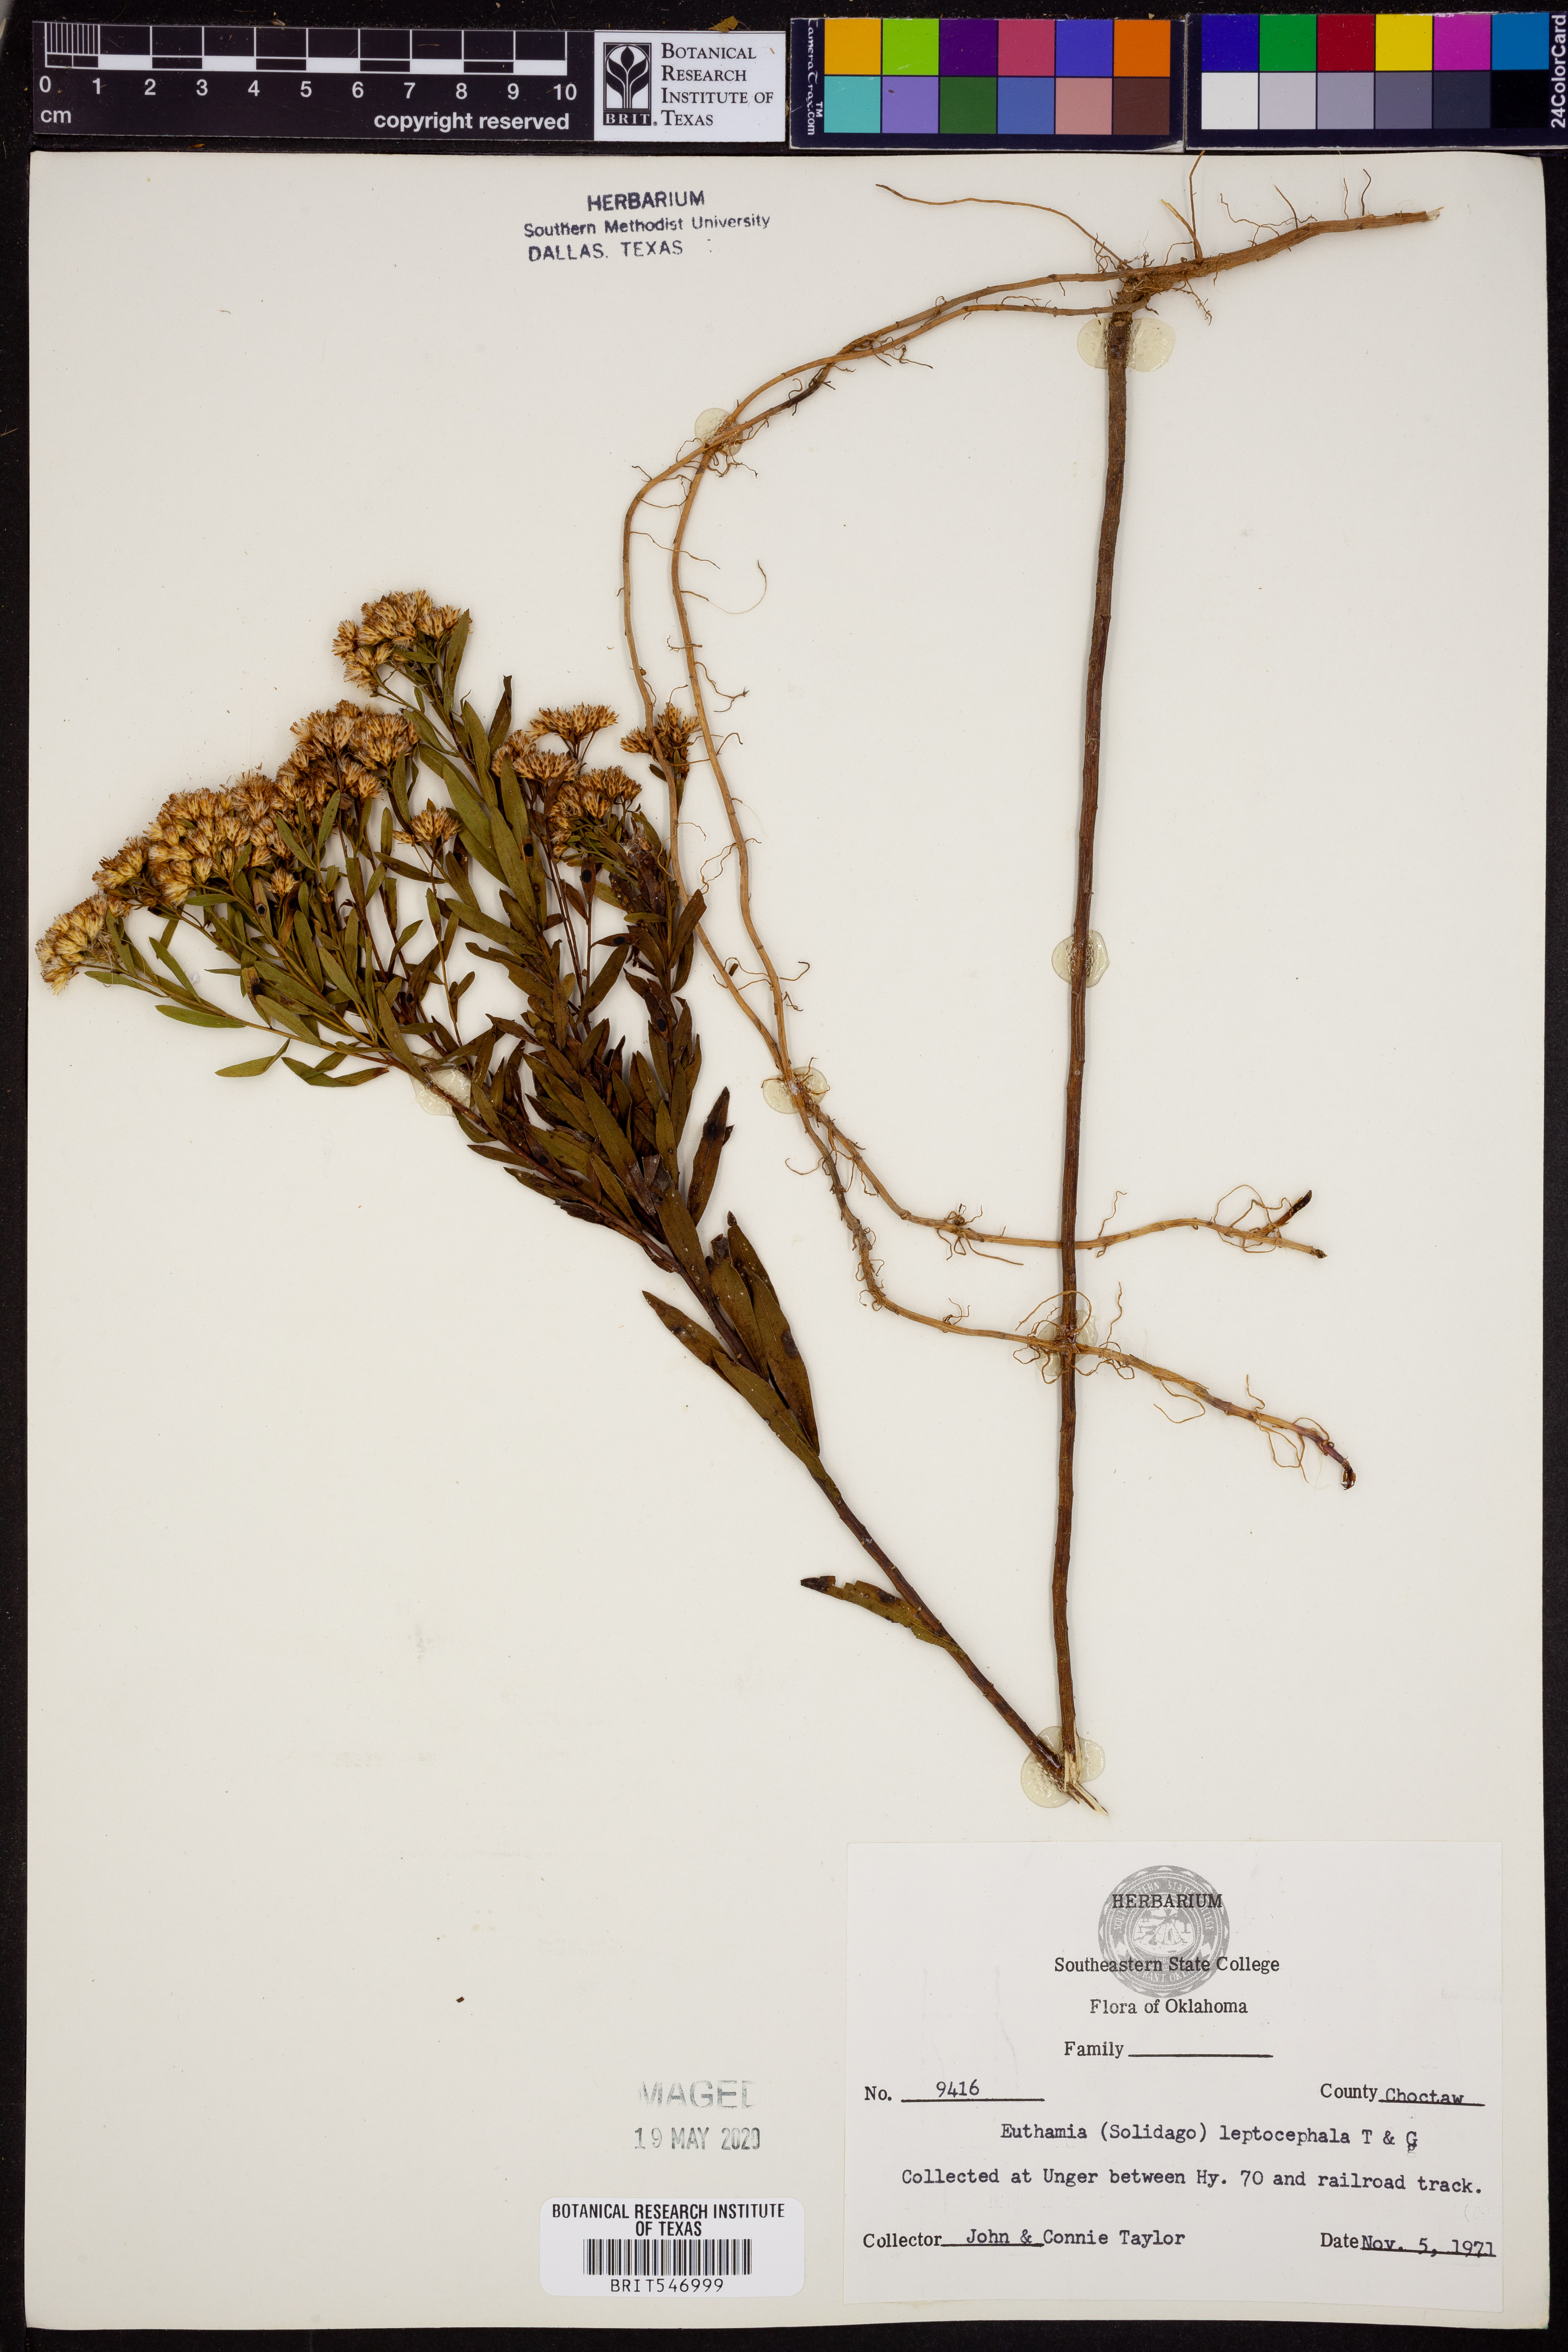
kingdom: Plantae
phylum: Tracheophyta
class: Magnoliopsida
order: Asterales
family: Asteraceae
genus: Euthamia
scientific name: Euthamia leptocephala
